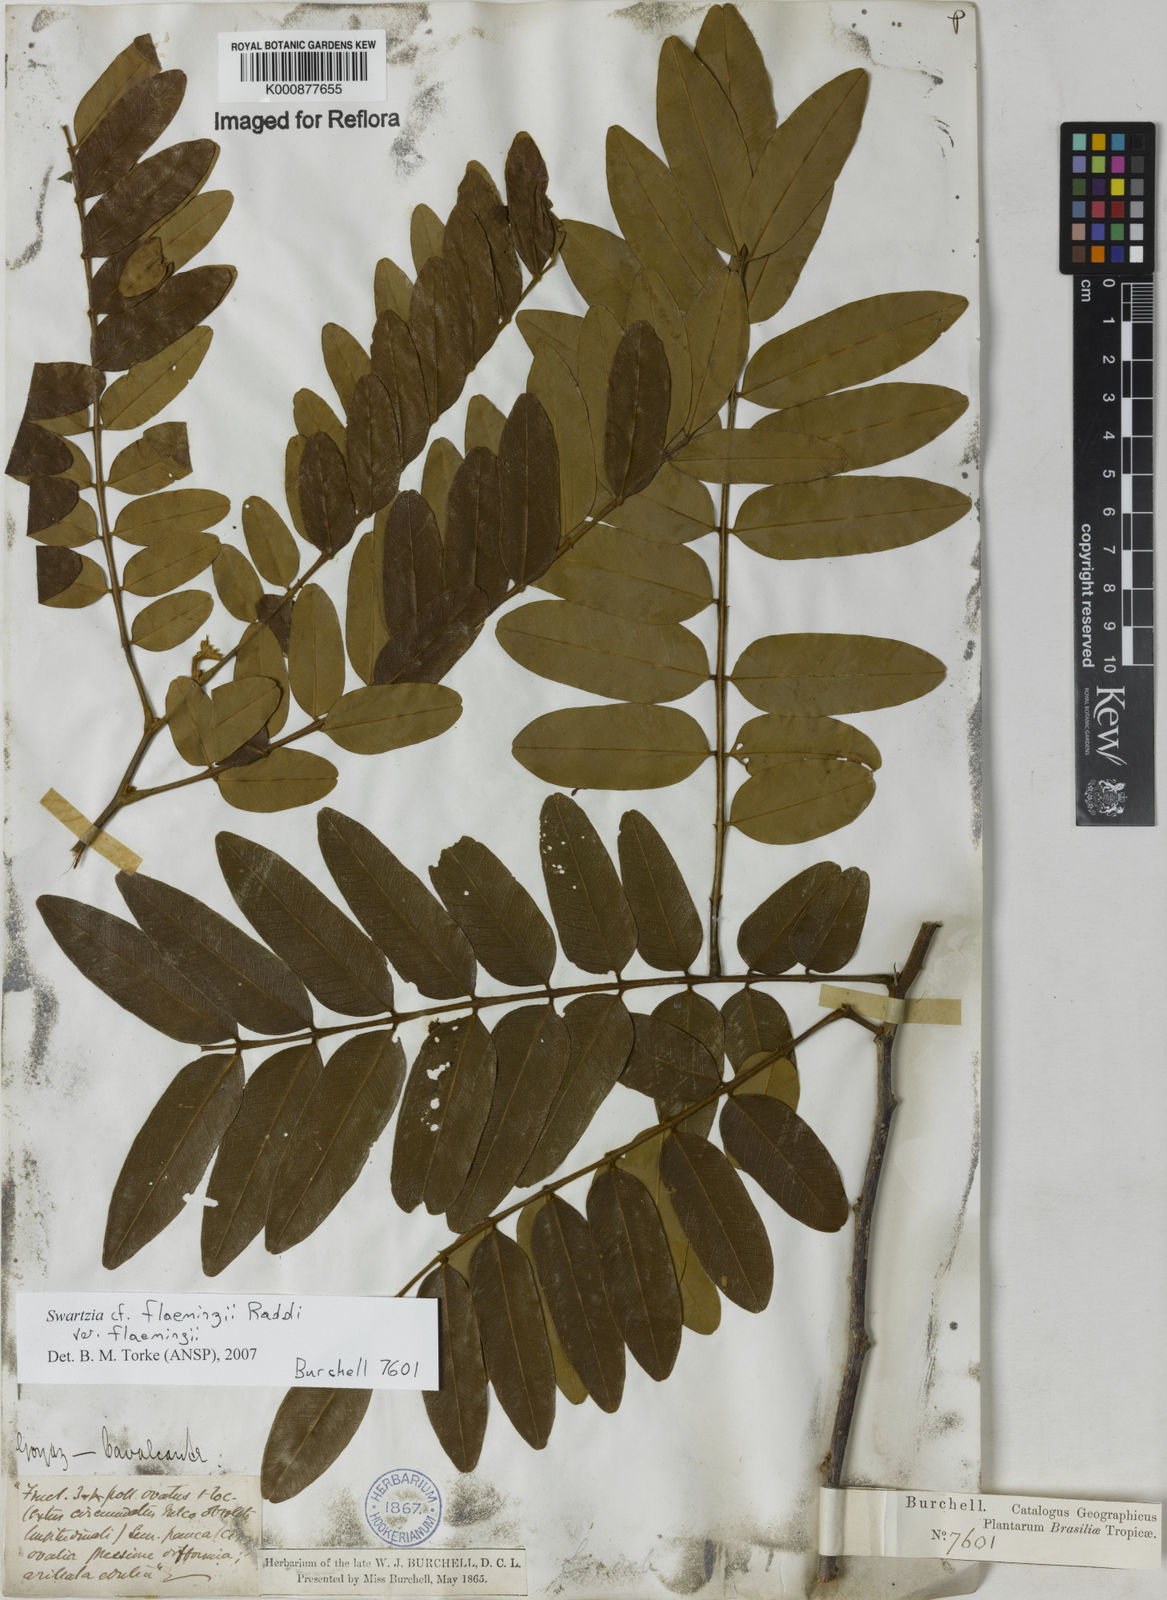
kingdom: Plantae
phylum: Tracheophyta
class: Magnoliopsida
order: Fabales
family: Fabaceae
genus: Swartzia
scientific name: Swartzia flaemingii
